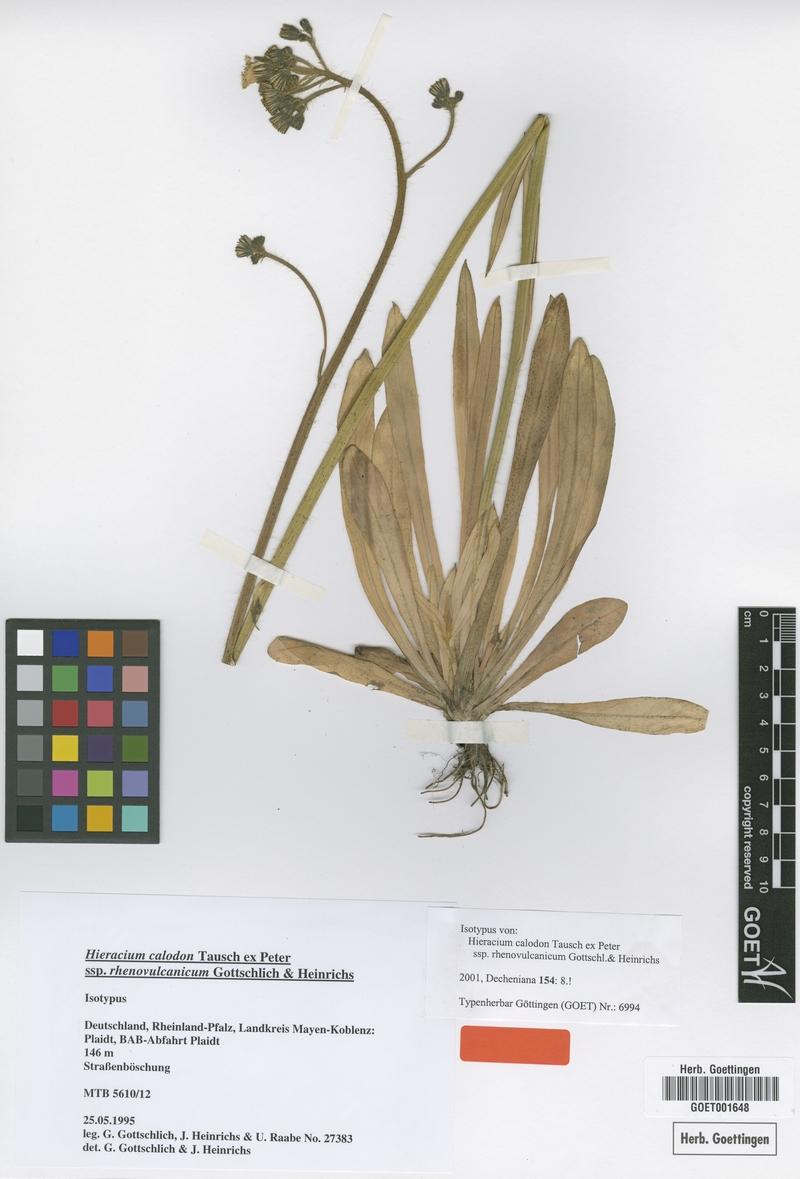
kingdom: Plantae
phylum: Tracheophyta
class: Magnoliopsida
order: Asterales
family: Asteraceae
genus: Pilosella
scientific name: Pilosella calodon
